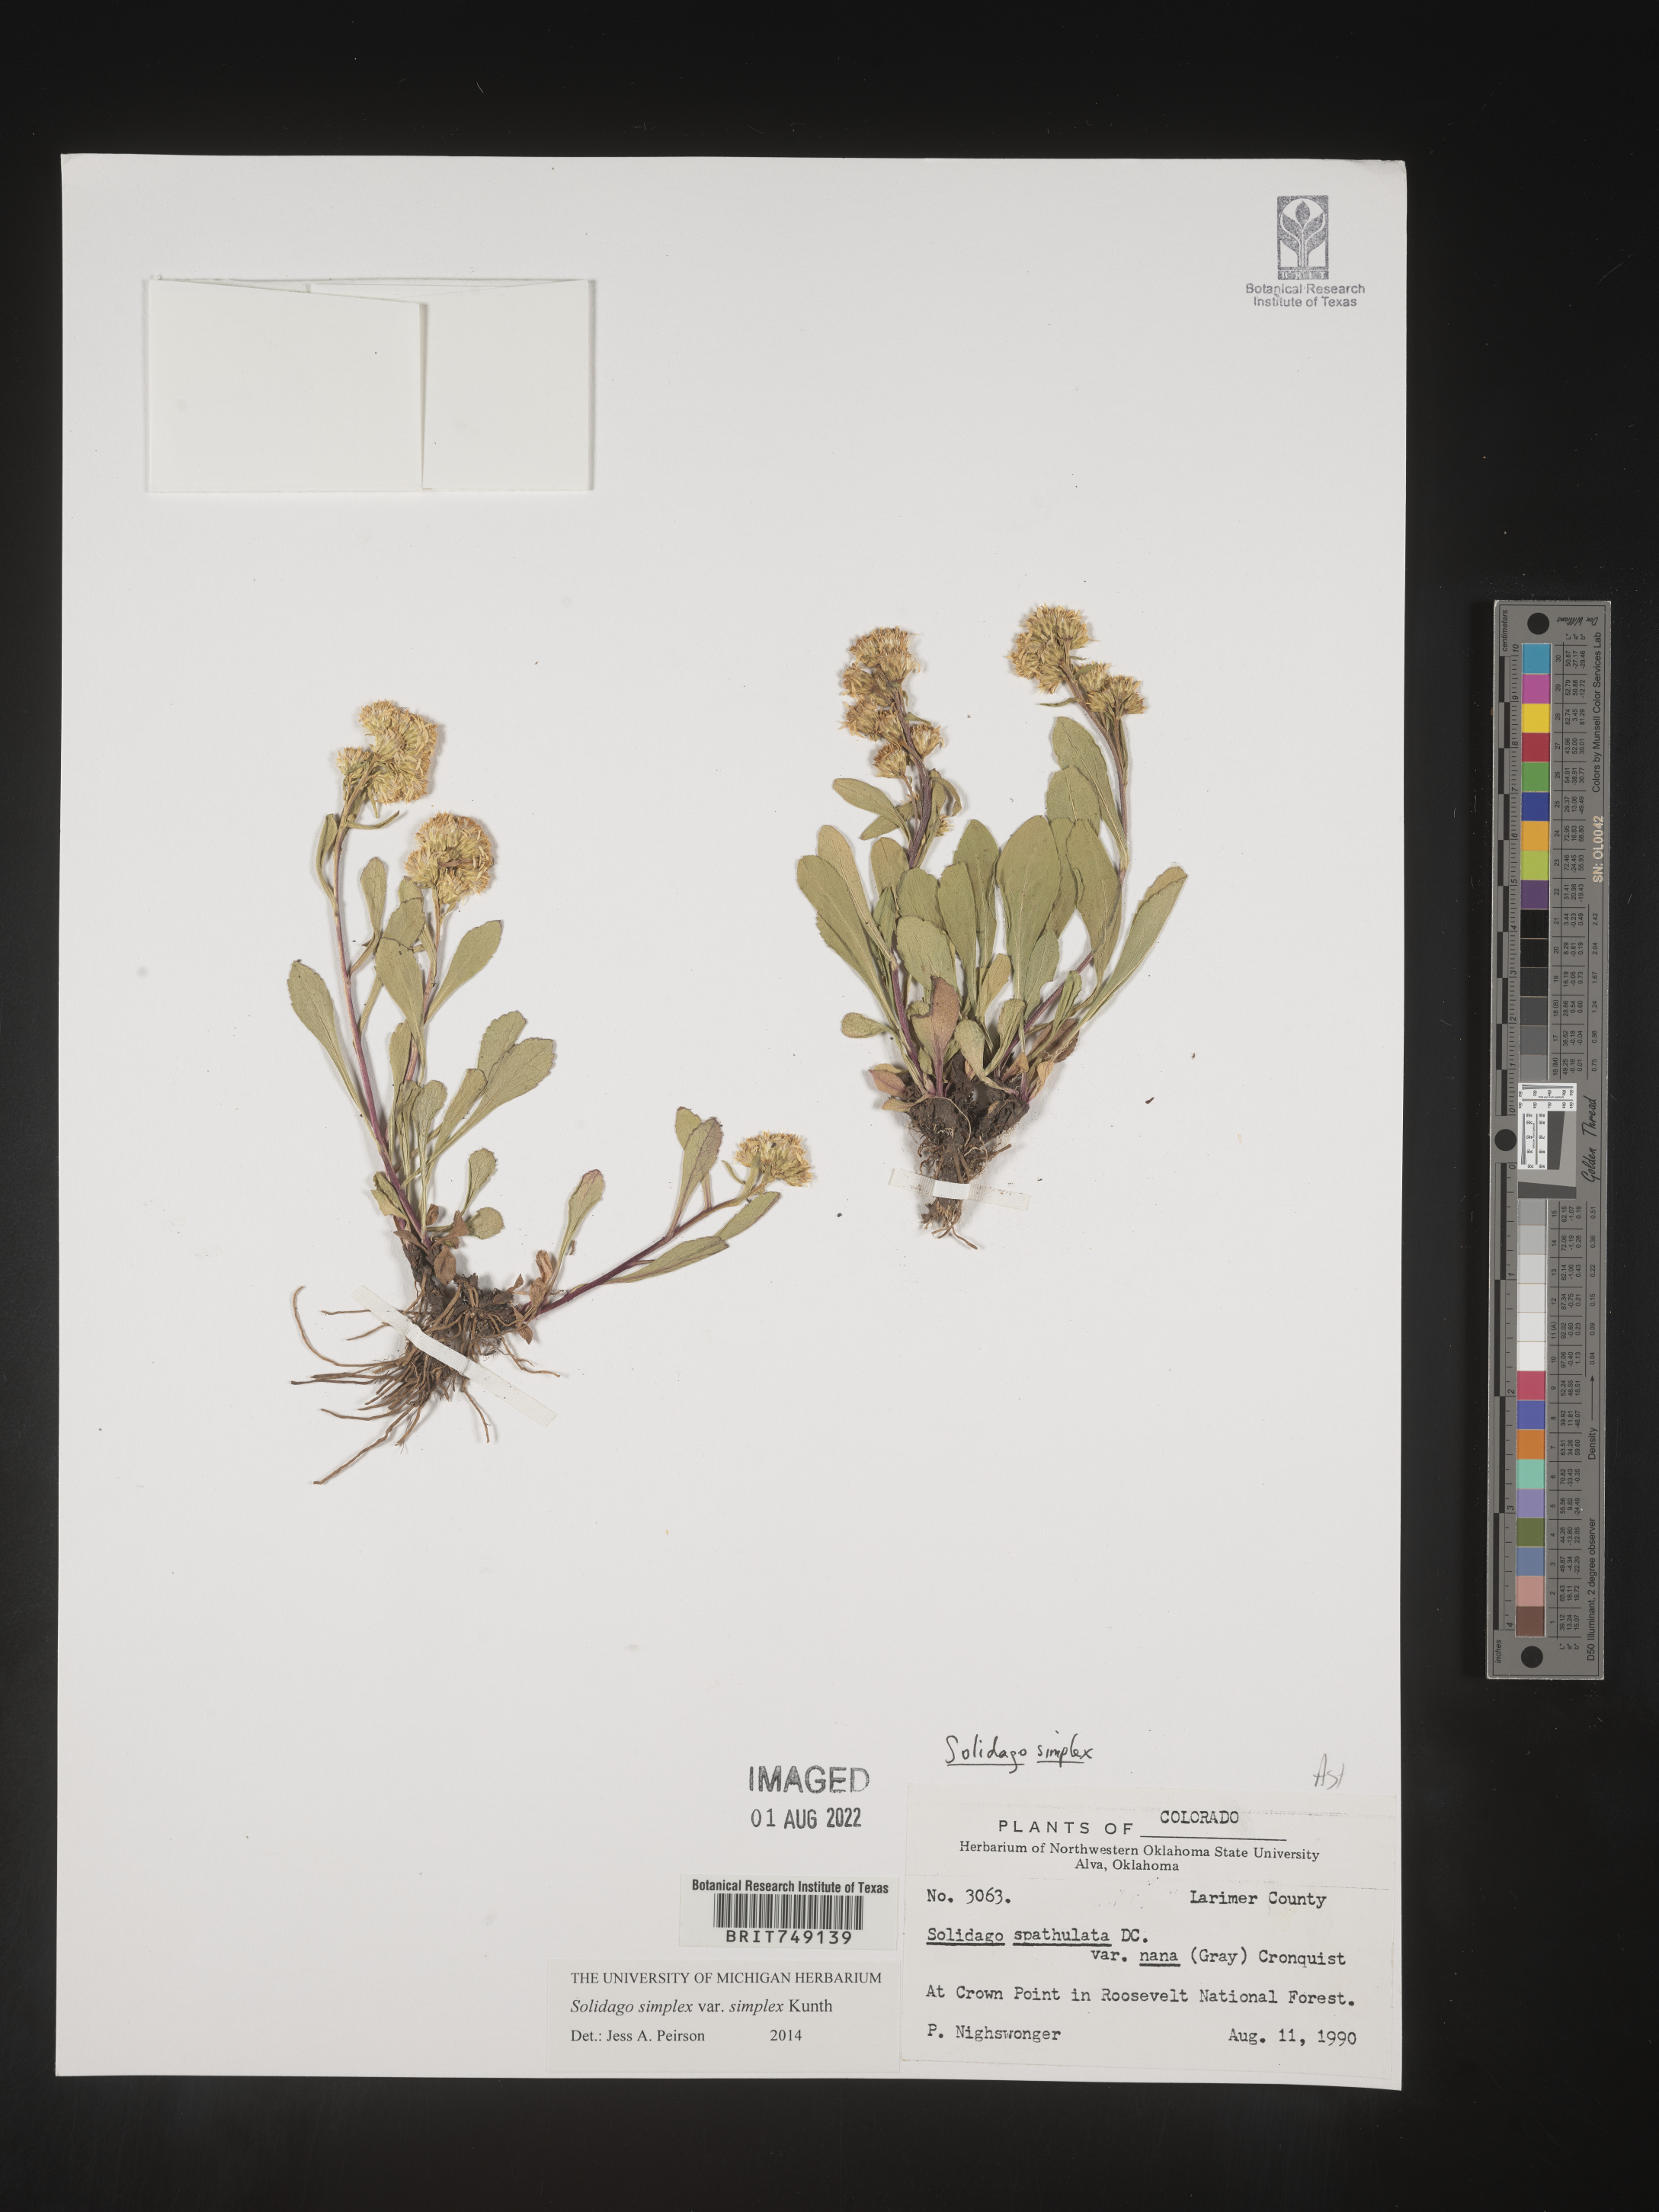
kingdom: Plantae
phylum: Tracheophyta
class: Magnoliopsida
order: Asterales
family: Asteraceae
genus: Solidago
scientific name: Solidago simplex
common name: Sticky goldenrod
